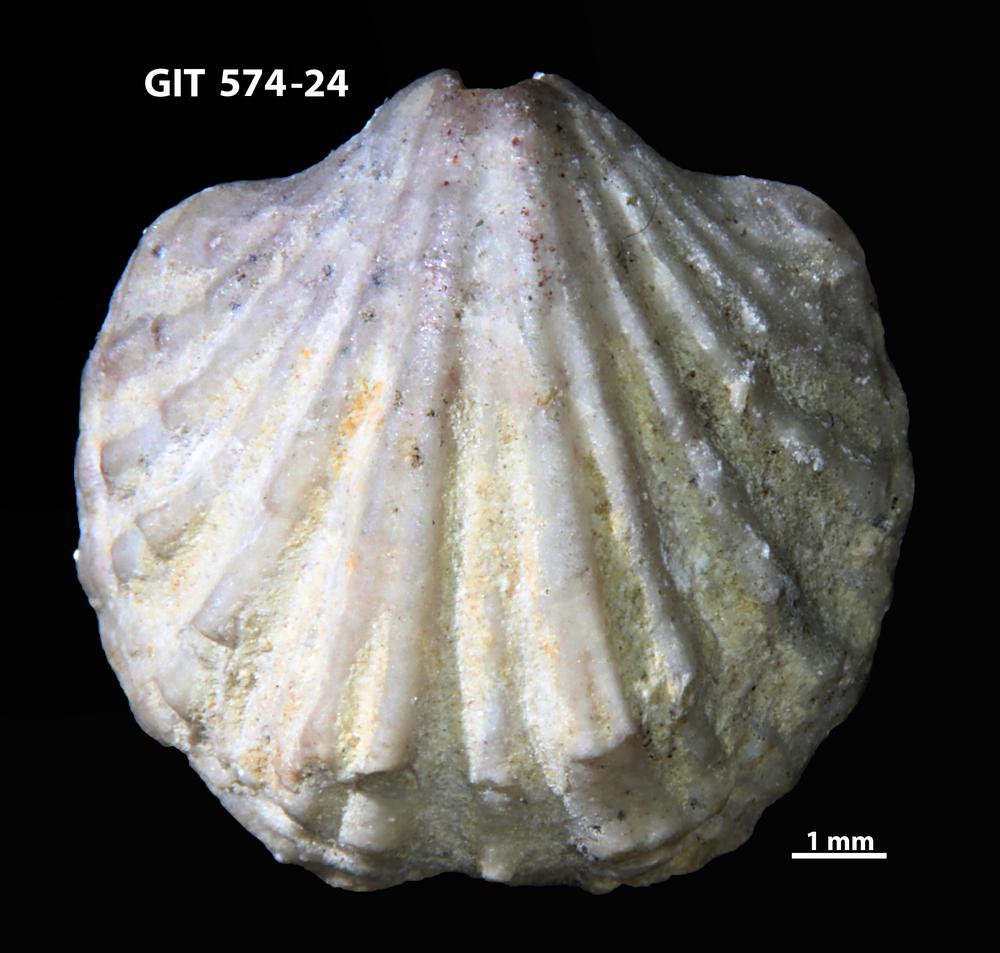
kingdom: Animalia
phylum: Brachiopoda
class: Rhynchonellata
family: Atrypinidae
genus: Eospirigerina
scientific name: Eospirigerina sulevi
